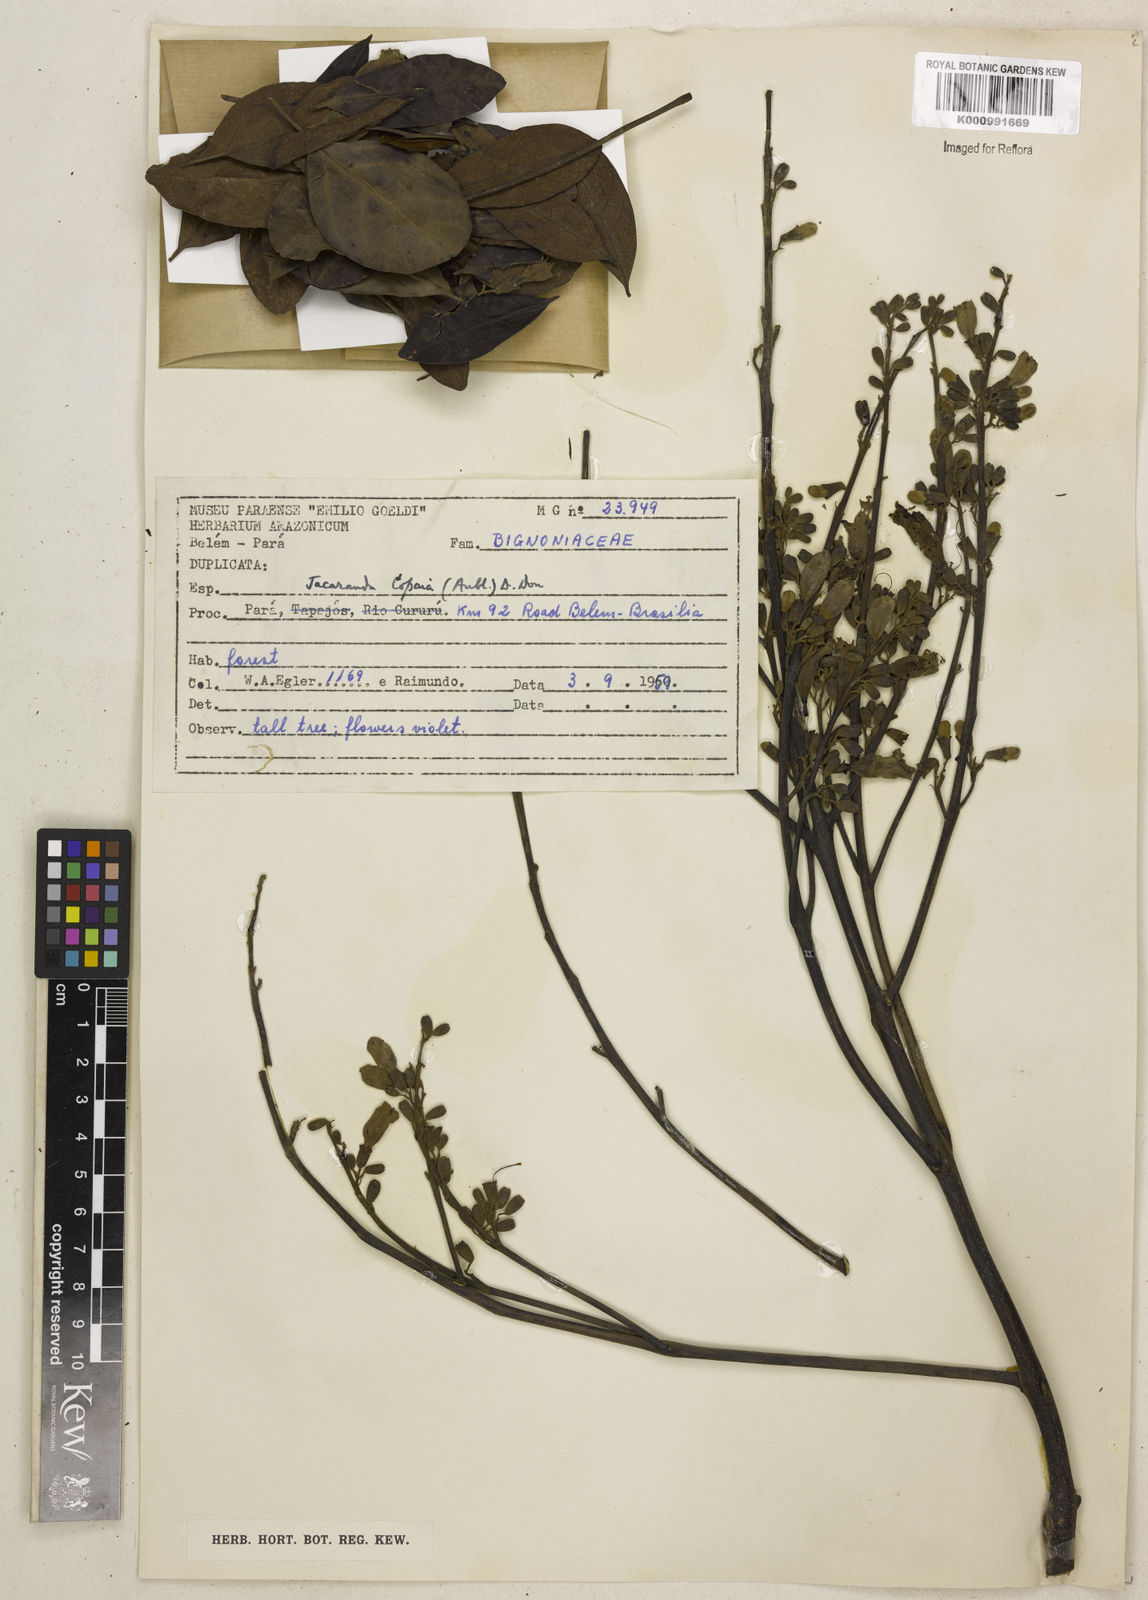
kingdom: Plantae
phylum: Tracheophyta
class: Magnoliopsida
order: Lamiales
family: Bignoniaceae
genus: Jacaranda
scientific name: Jacaranda copaia
